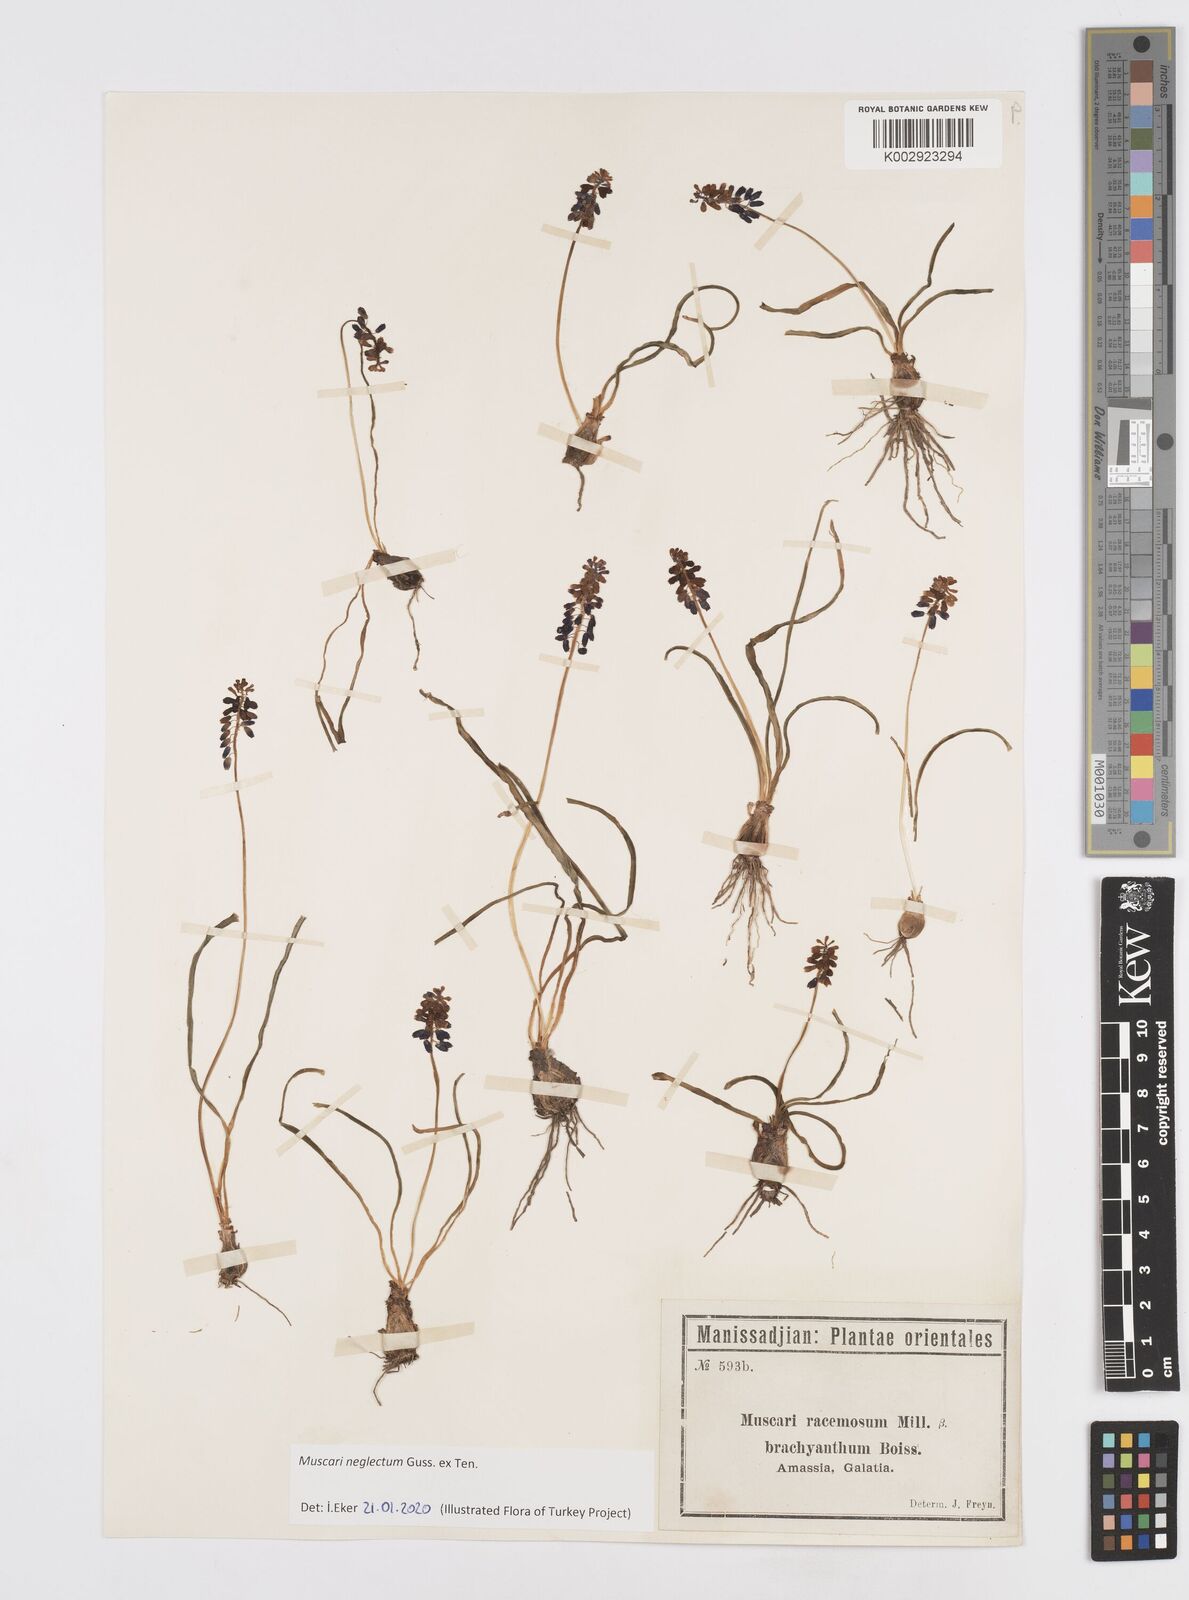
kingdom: Plantae
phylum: Tracheophyta
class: Liliopsida
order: Asparagales
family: Asparagaceae
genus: Muscari
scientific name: Muscari neglectum
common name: Grape-hyacinth
